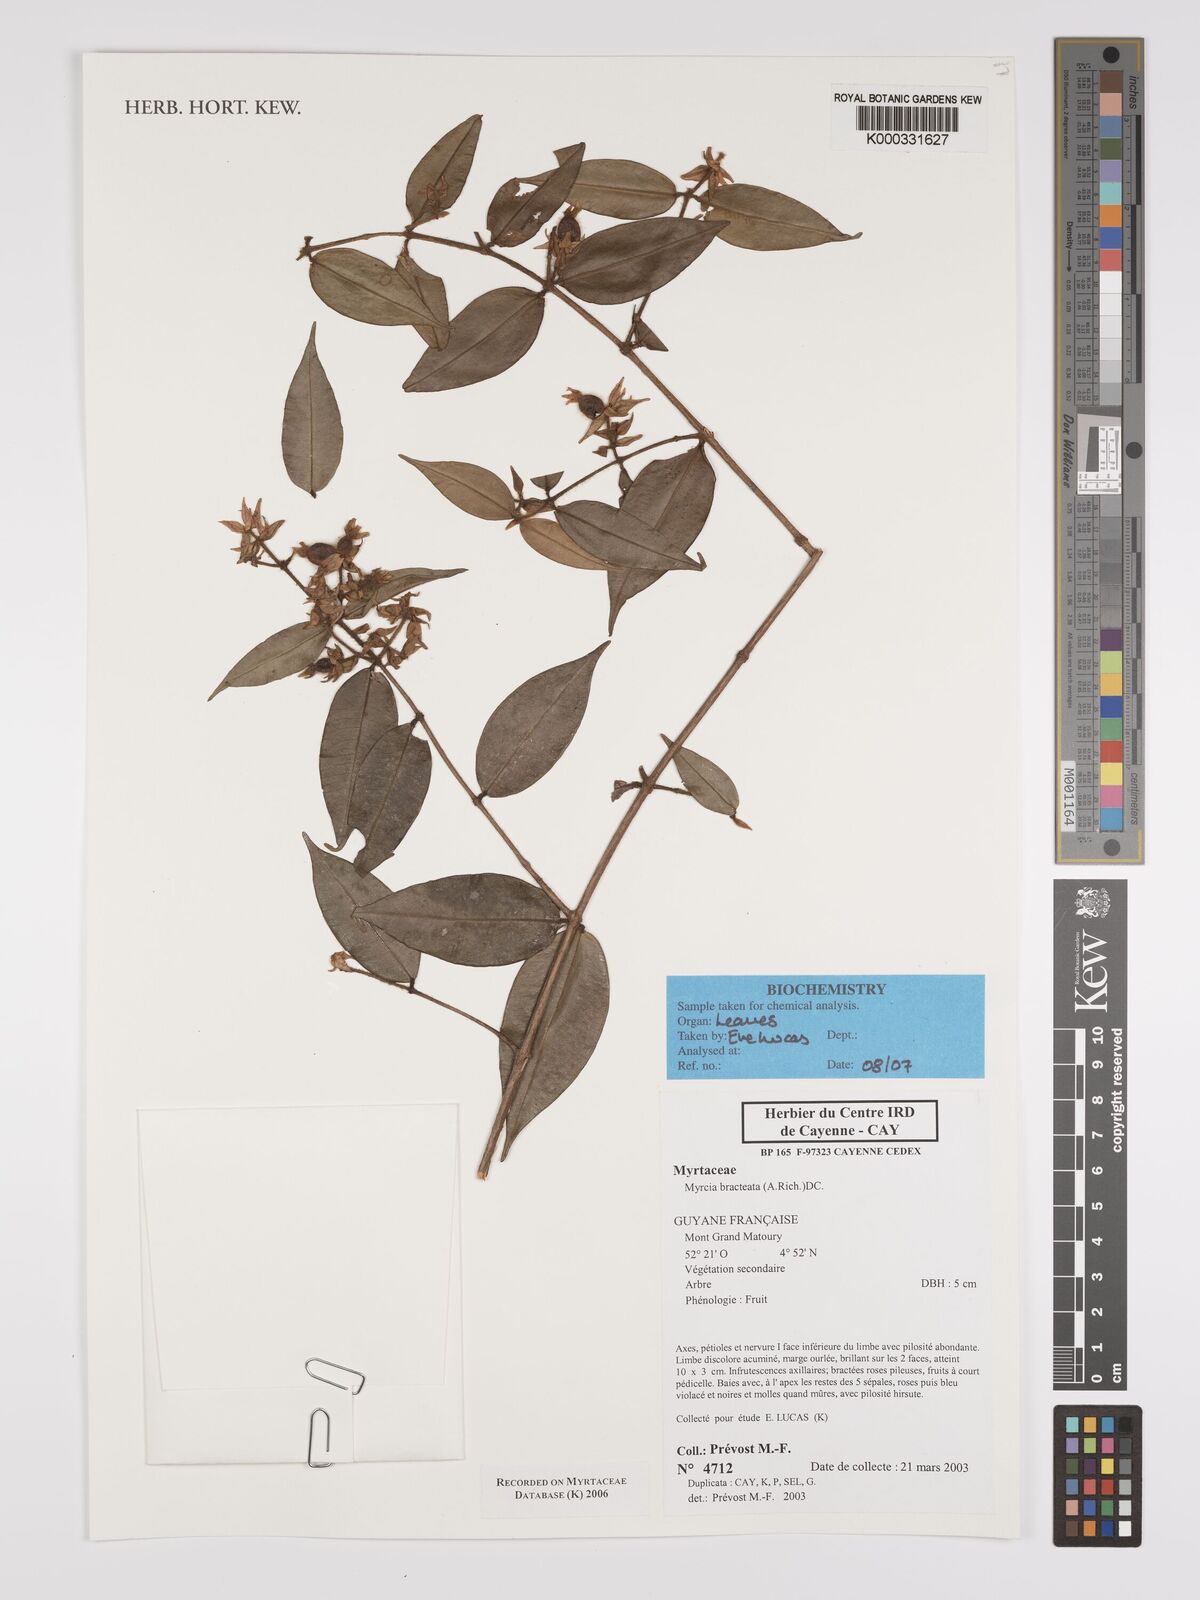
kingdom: Plantae
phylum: Tracheophyta
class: Magnoliopsida
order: Myrtales
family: Myrtaceae
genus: Myrcia
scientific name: Myrcia bracteata
